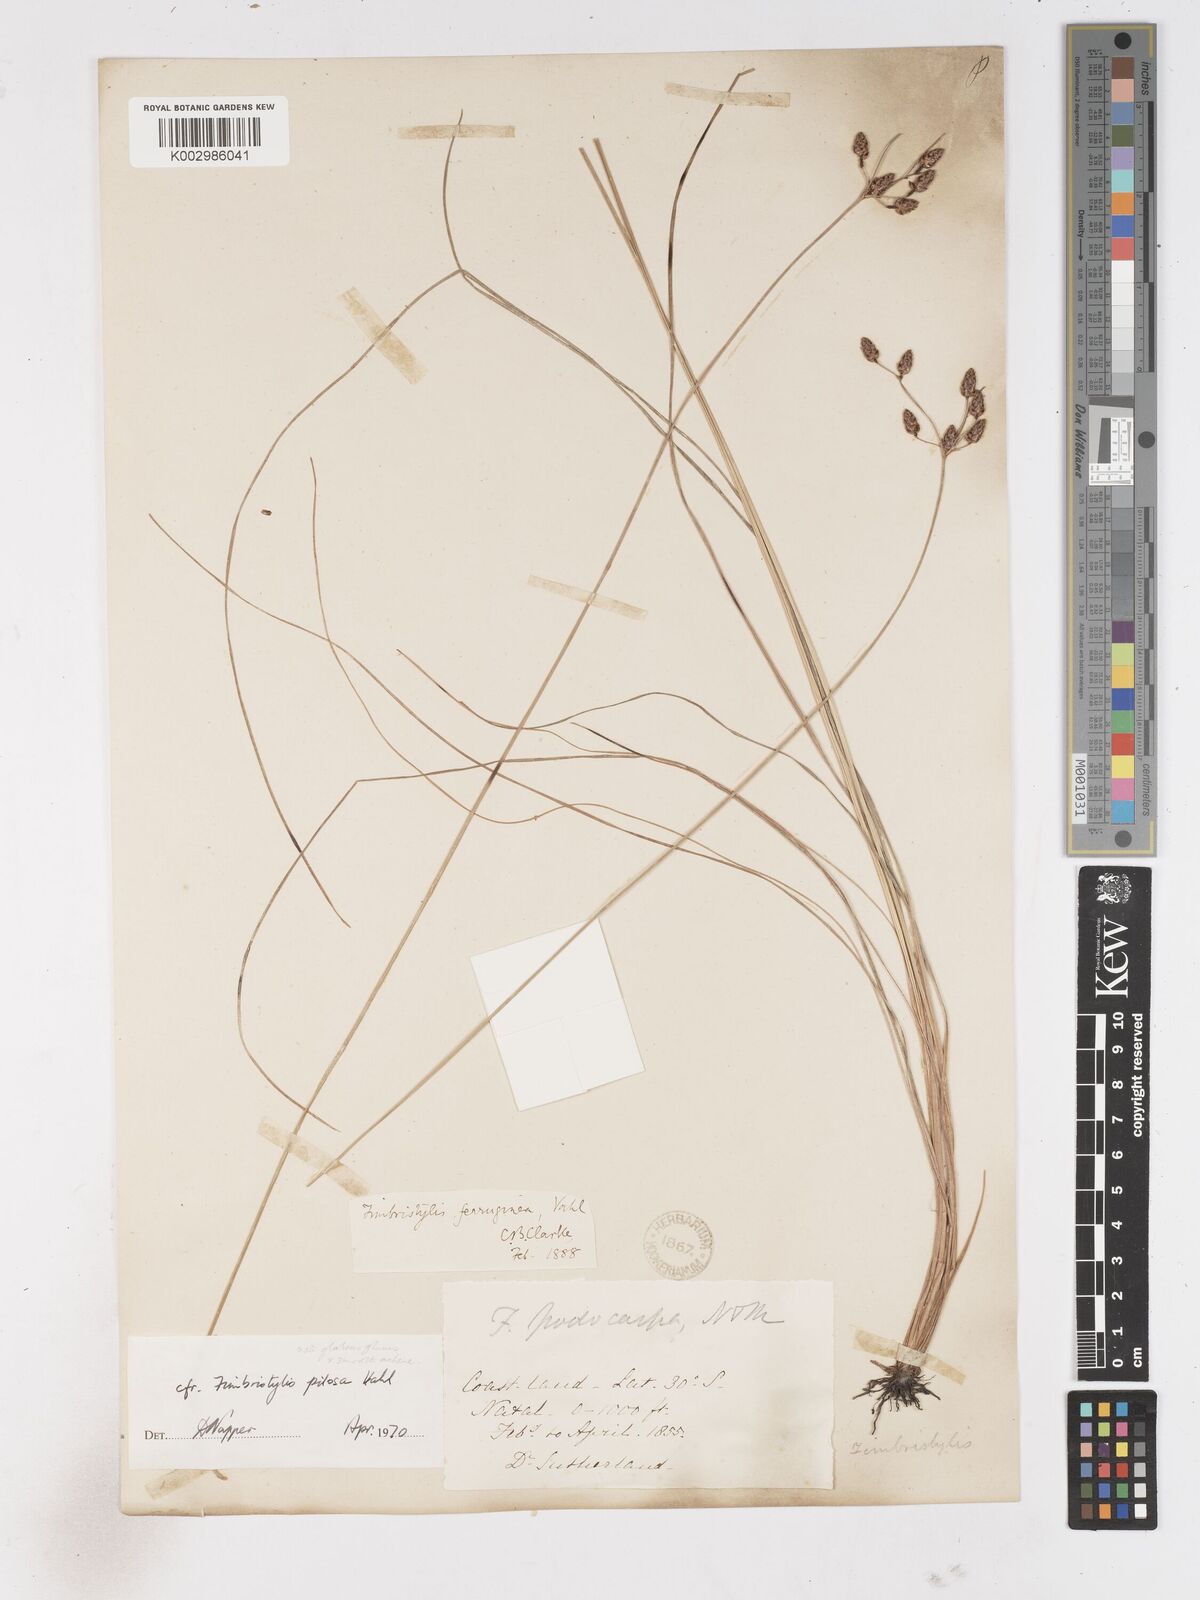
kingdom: Plantae
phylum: Tracheophyta
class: Liliopsida
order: Poales
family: Cyperaceae
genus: Fimbristylis
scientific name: Fimbristylis pilosa
